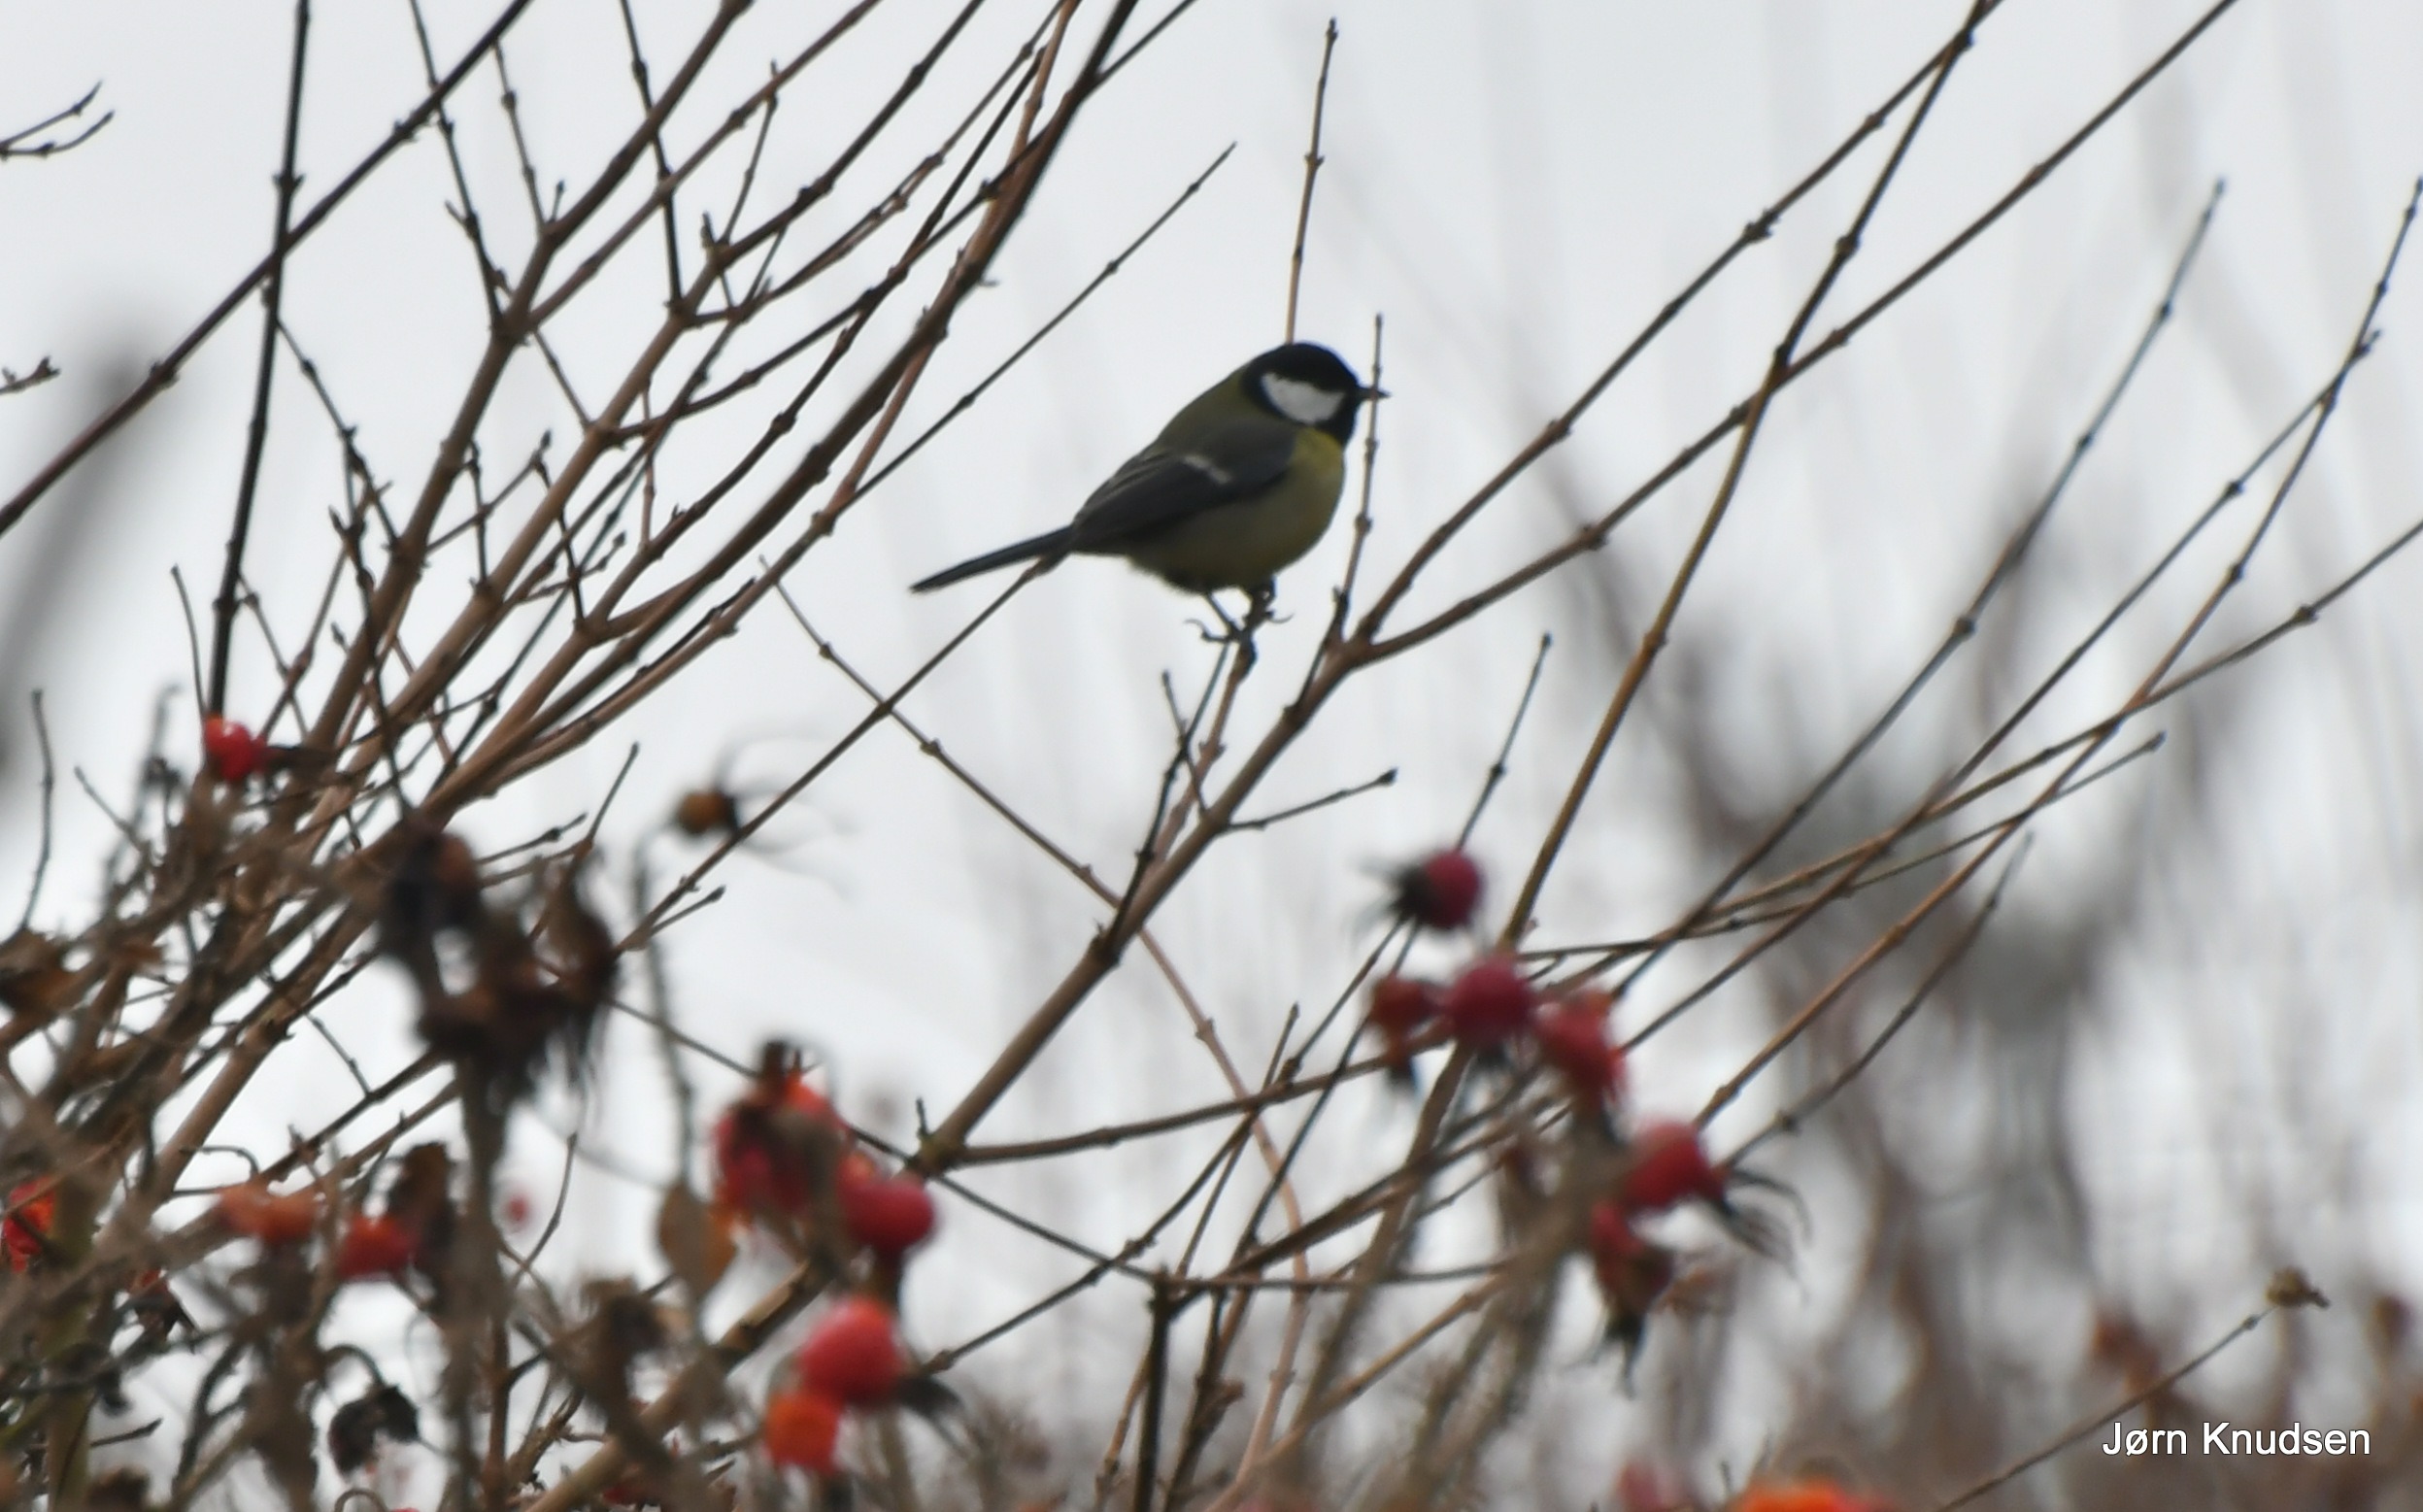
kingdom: Animalia
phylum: Chordata
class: Aves
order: Passeriformes
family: Paridae
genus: Parus
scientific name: Parus major
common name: Musvit
